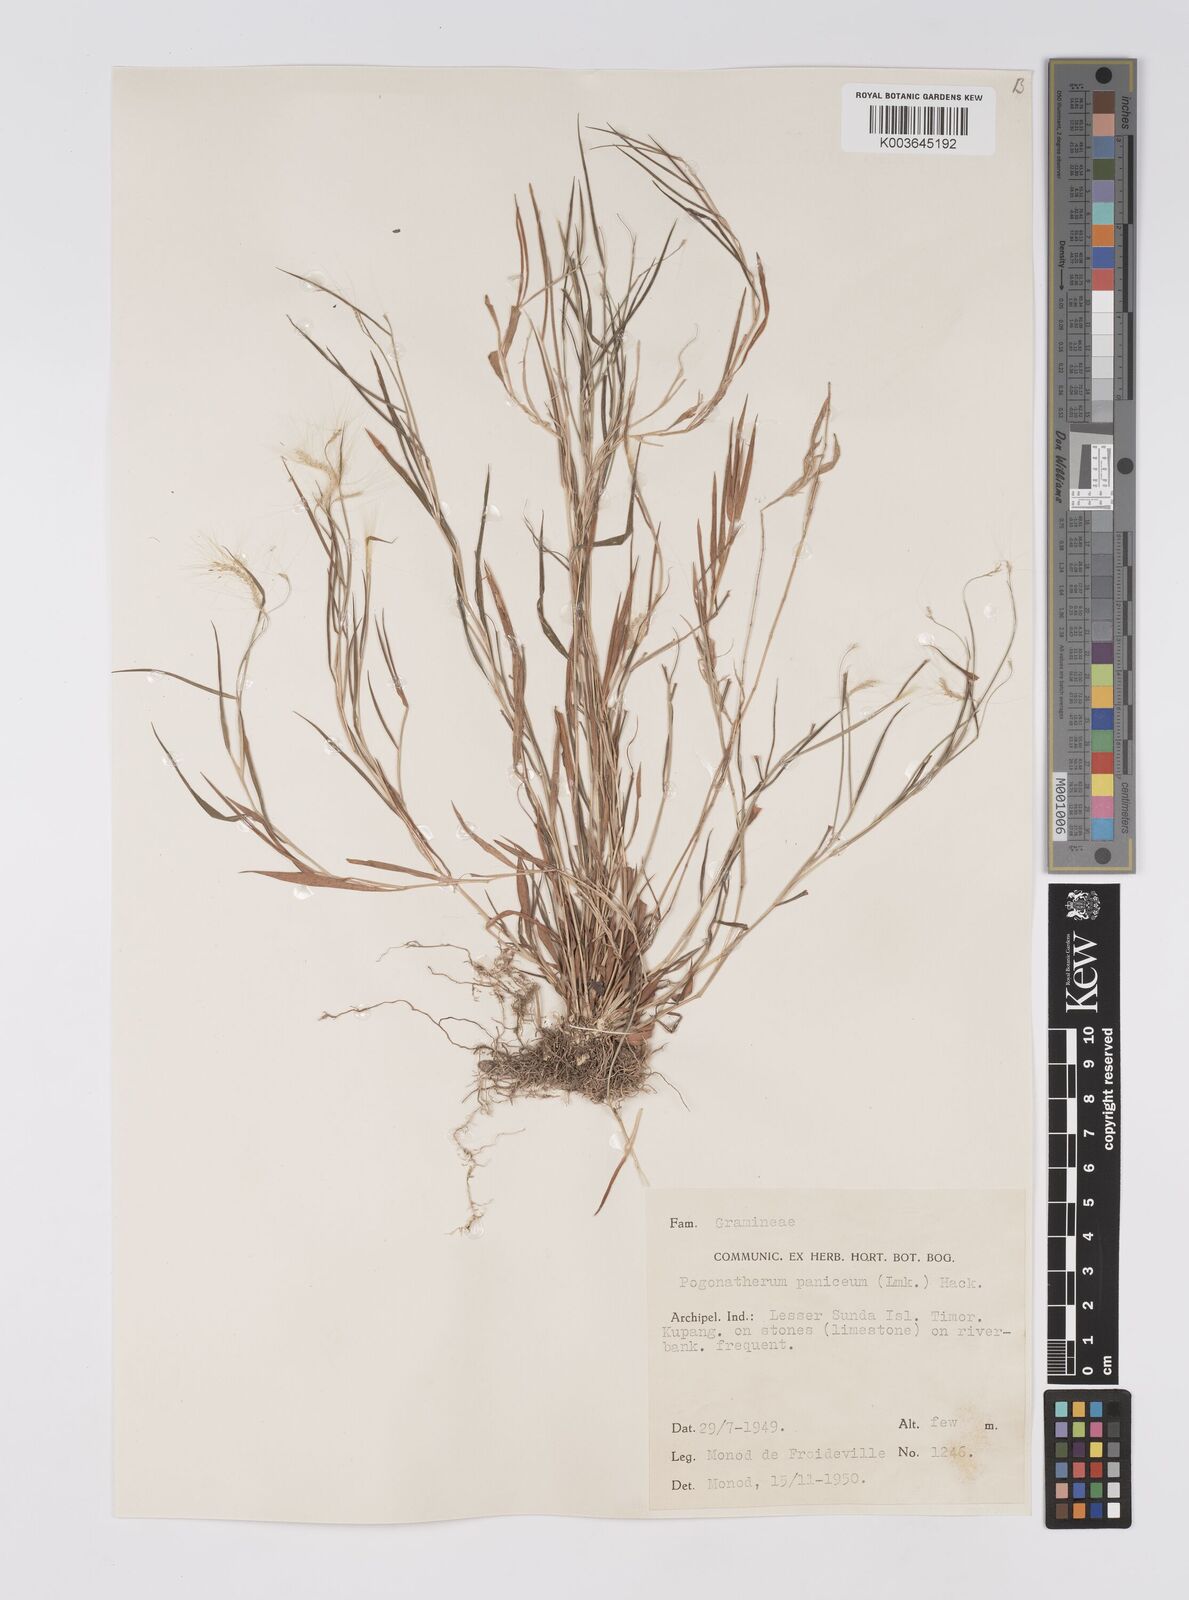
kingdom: Plantae
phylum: Tracheophyta
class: Liliopsida
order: Poales
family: Poaceae
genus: Pogonatherum
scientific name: Pogonatherum crinitum
